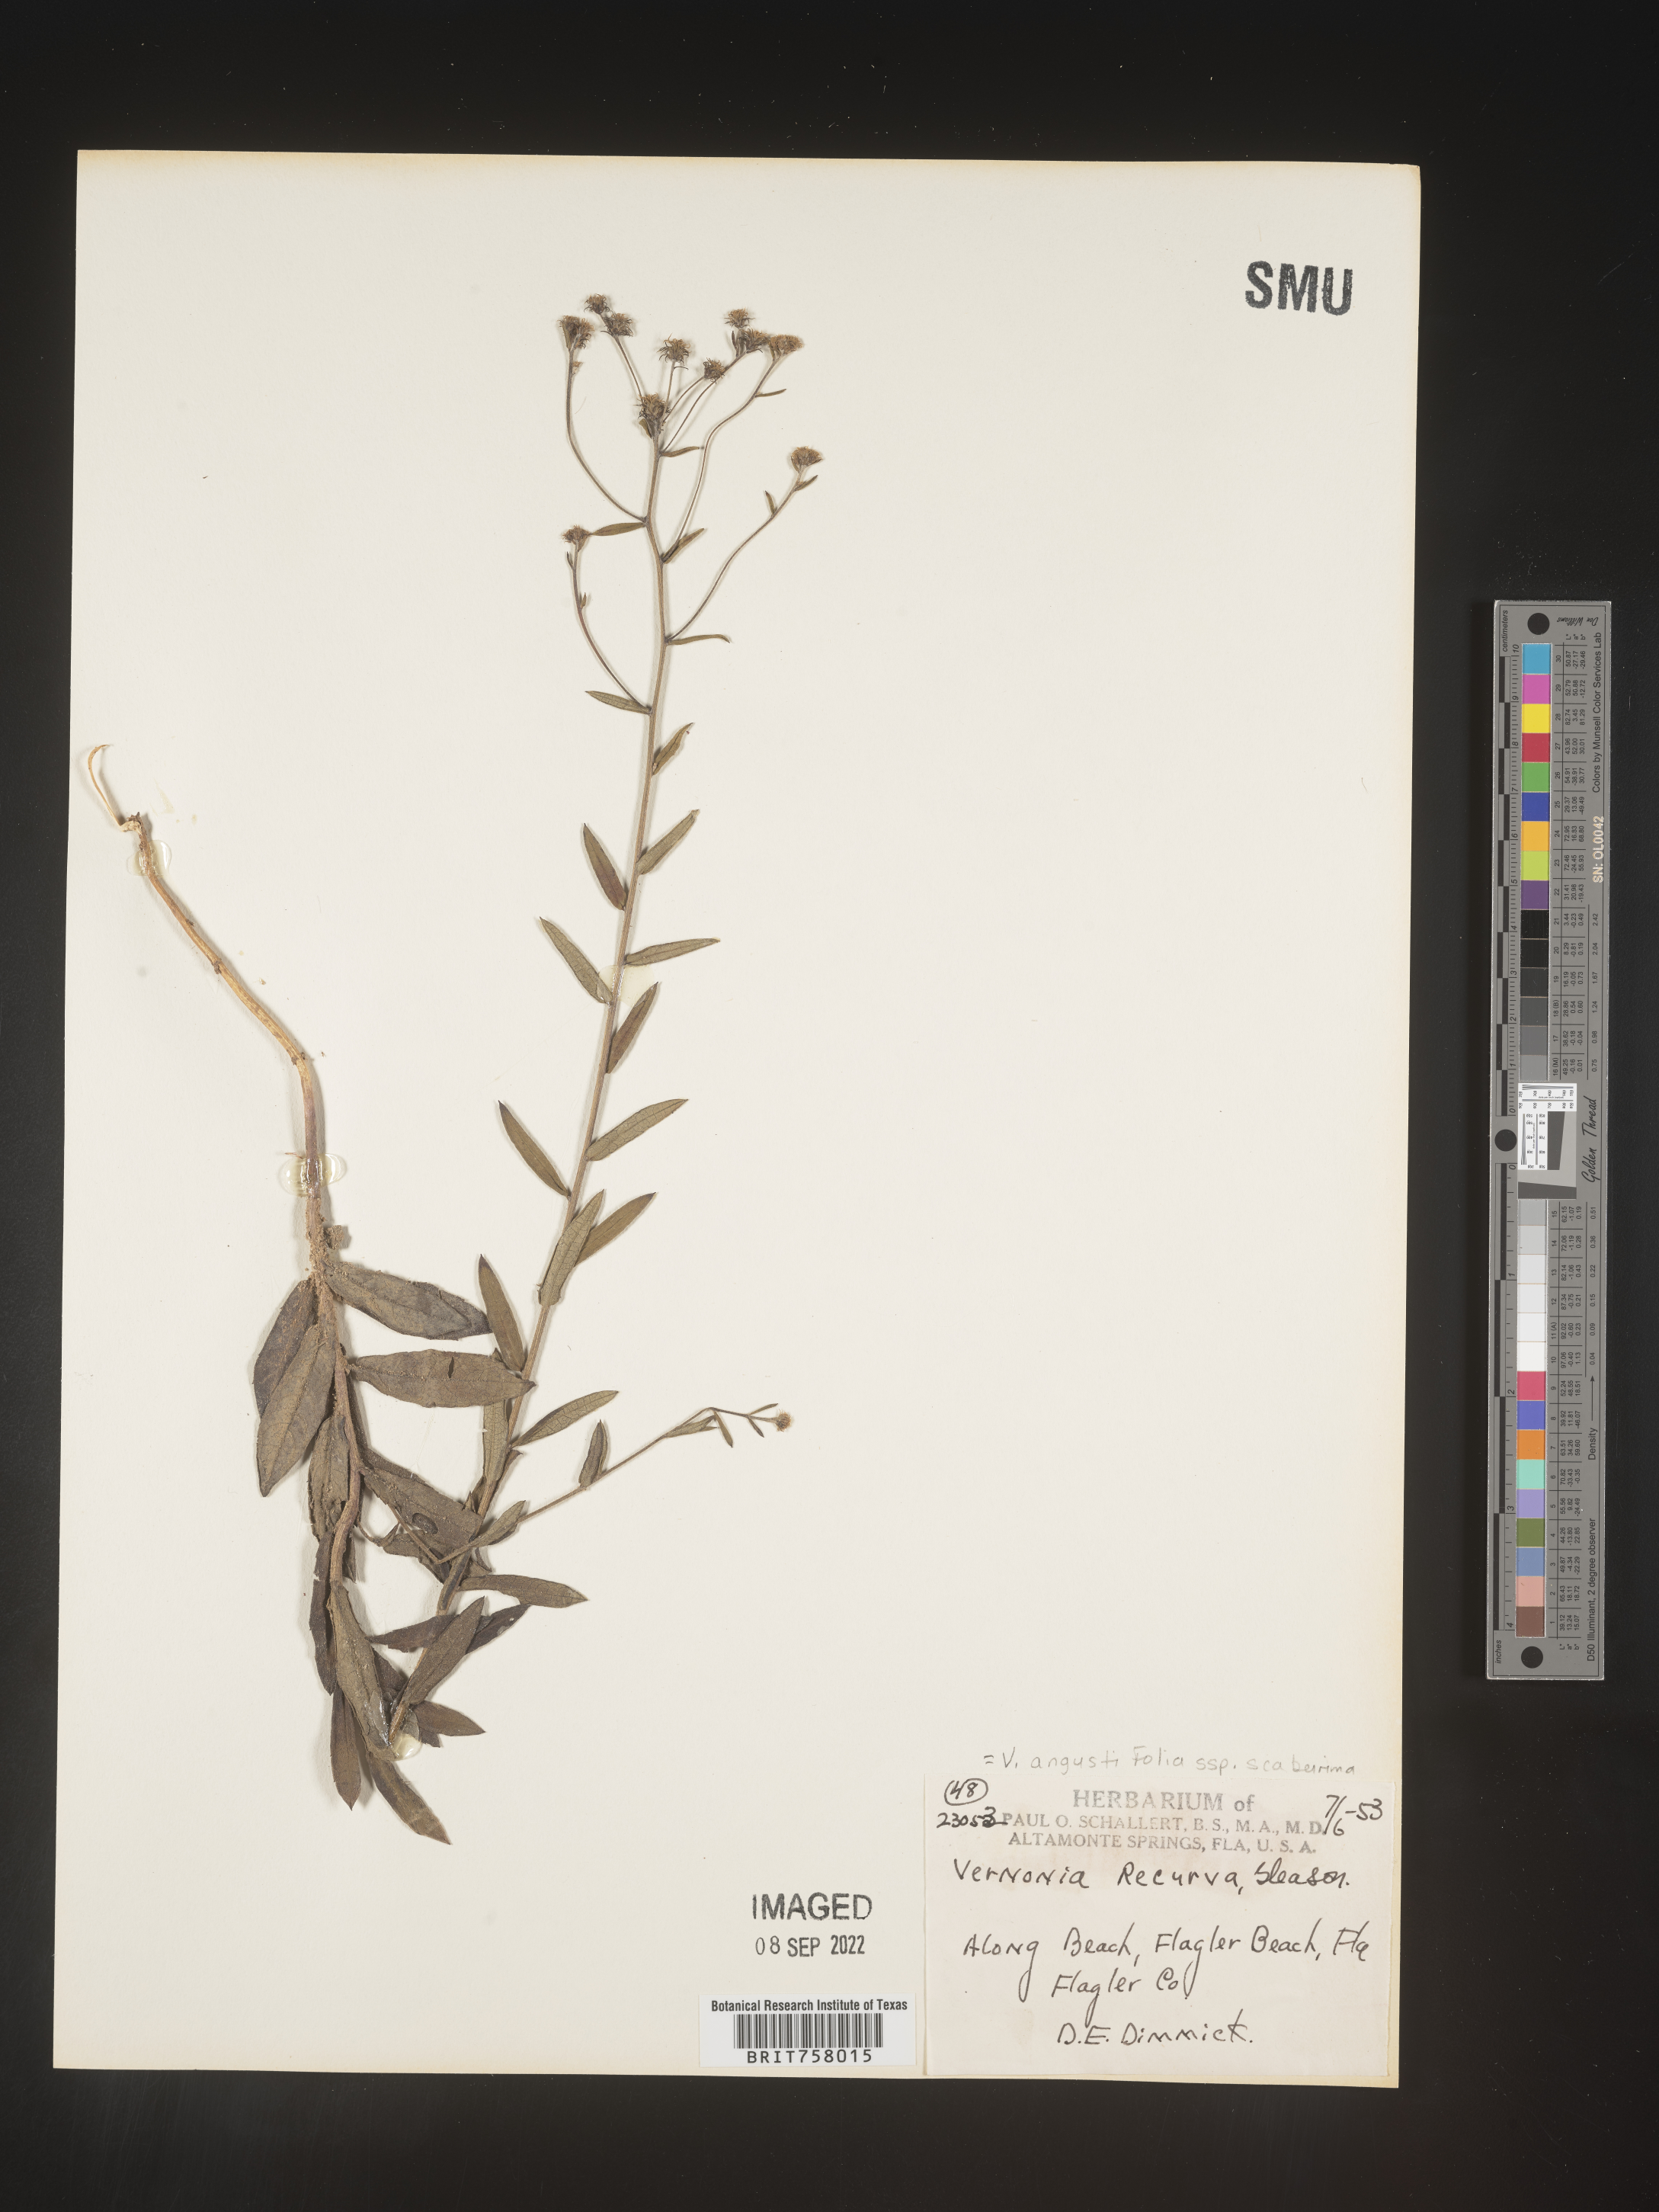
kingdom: Plantae
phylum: Tracheophyta
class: Magnoliopsida
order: Asterales
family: Asteraceae
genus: Vernonia
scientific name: Vernonia angustifolia
